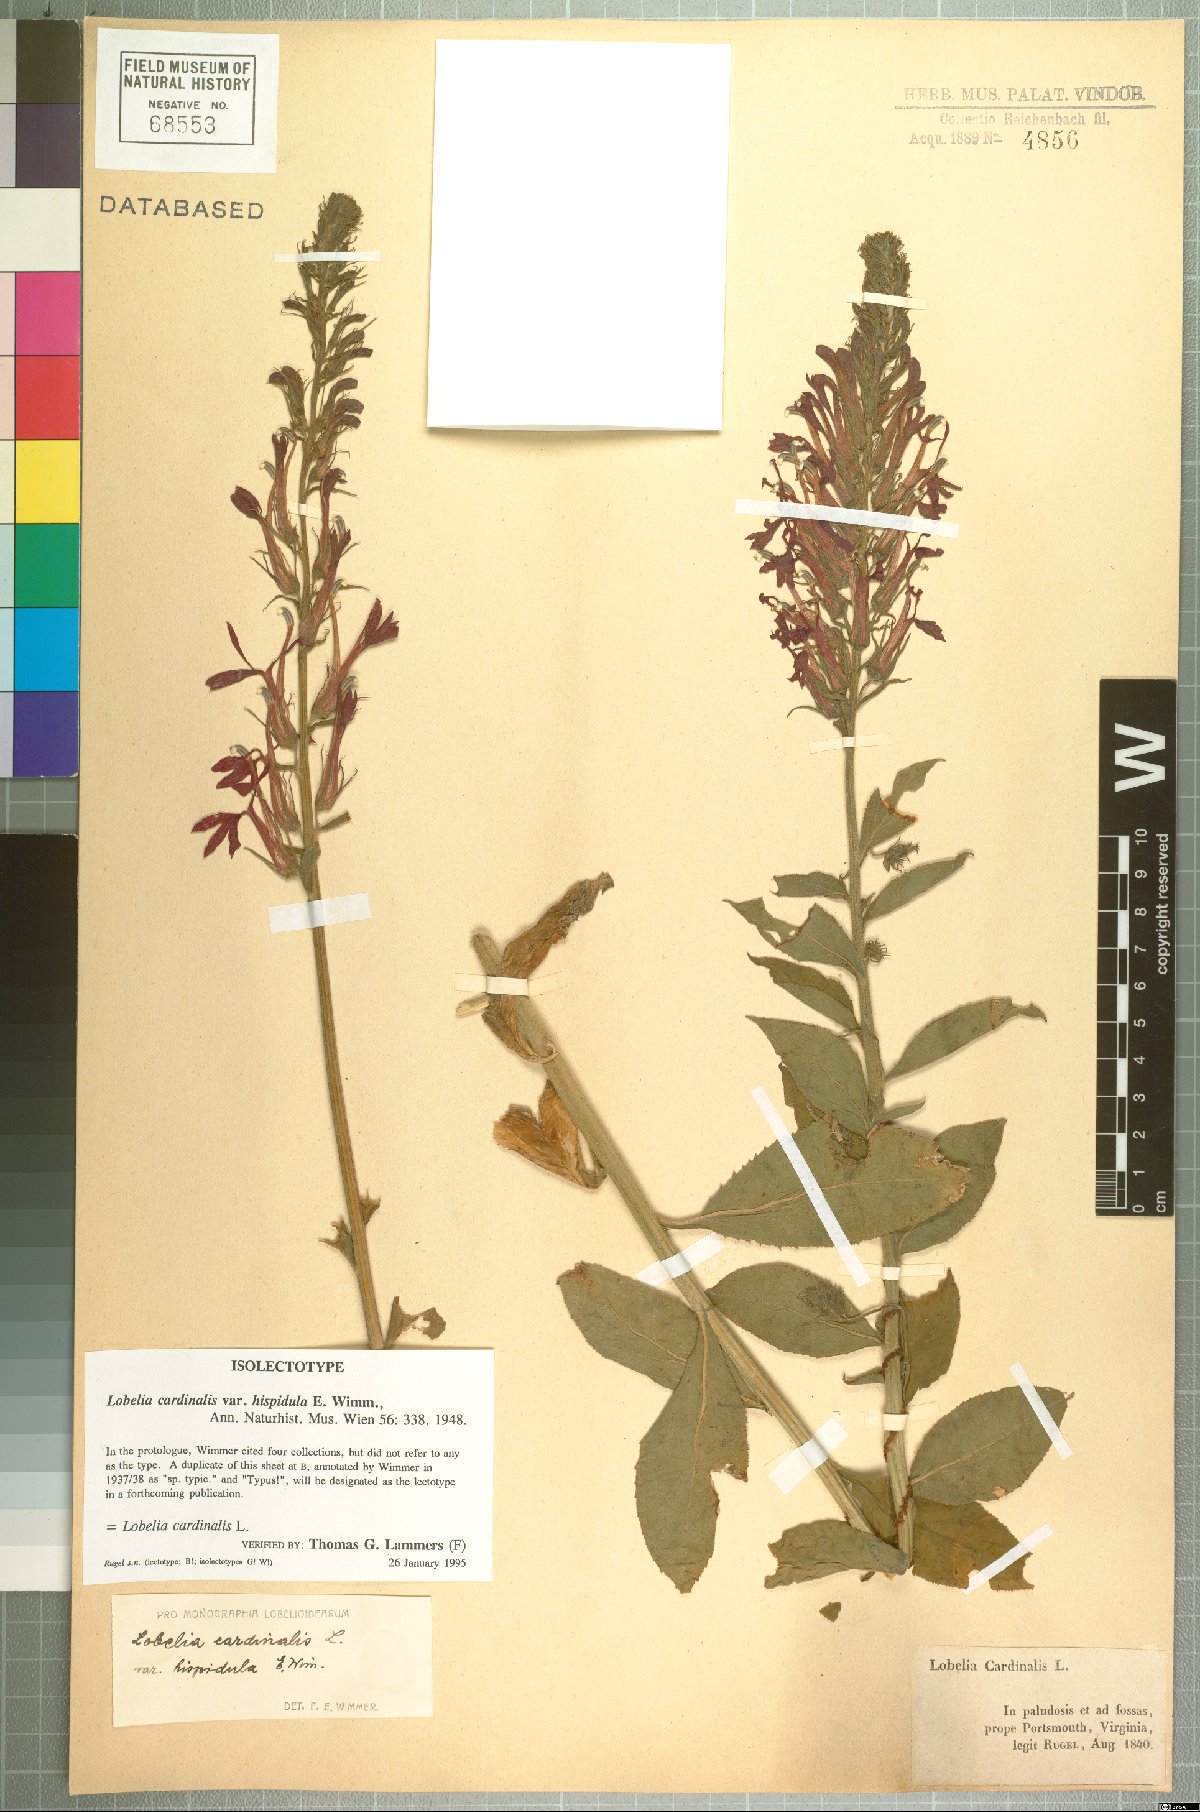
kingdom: Plantae
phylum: Tracheophyta
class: Magnoliopsida
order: Asterales
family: Campanulaceae
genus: Lobelia
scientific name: Lobelia cardinalis
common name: Cardinal flower
